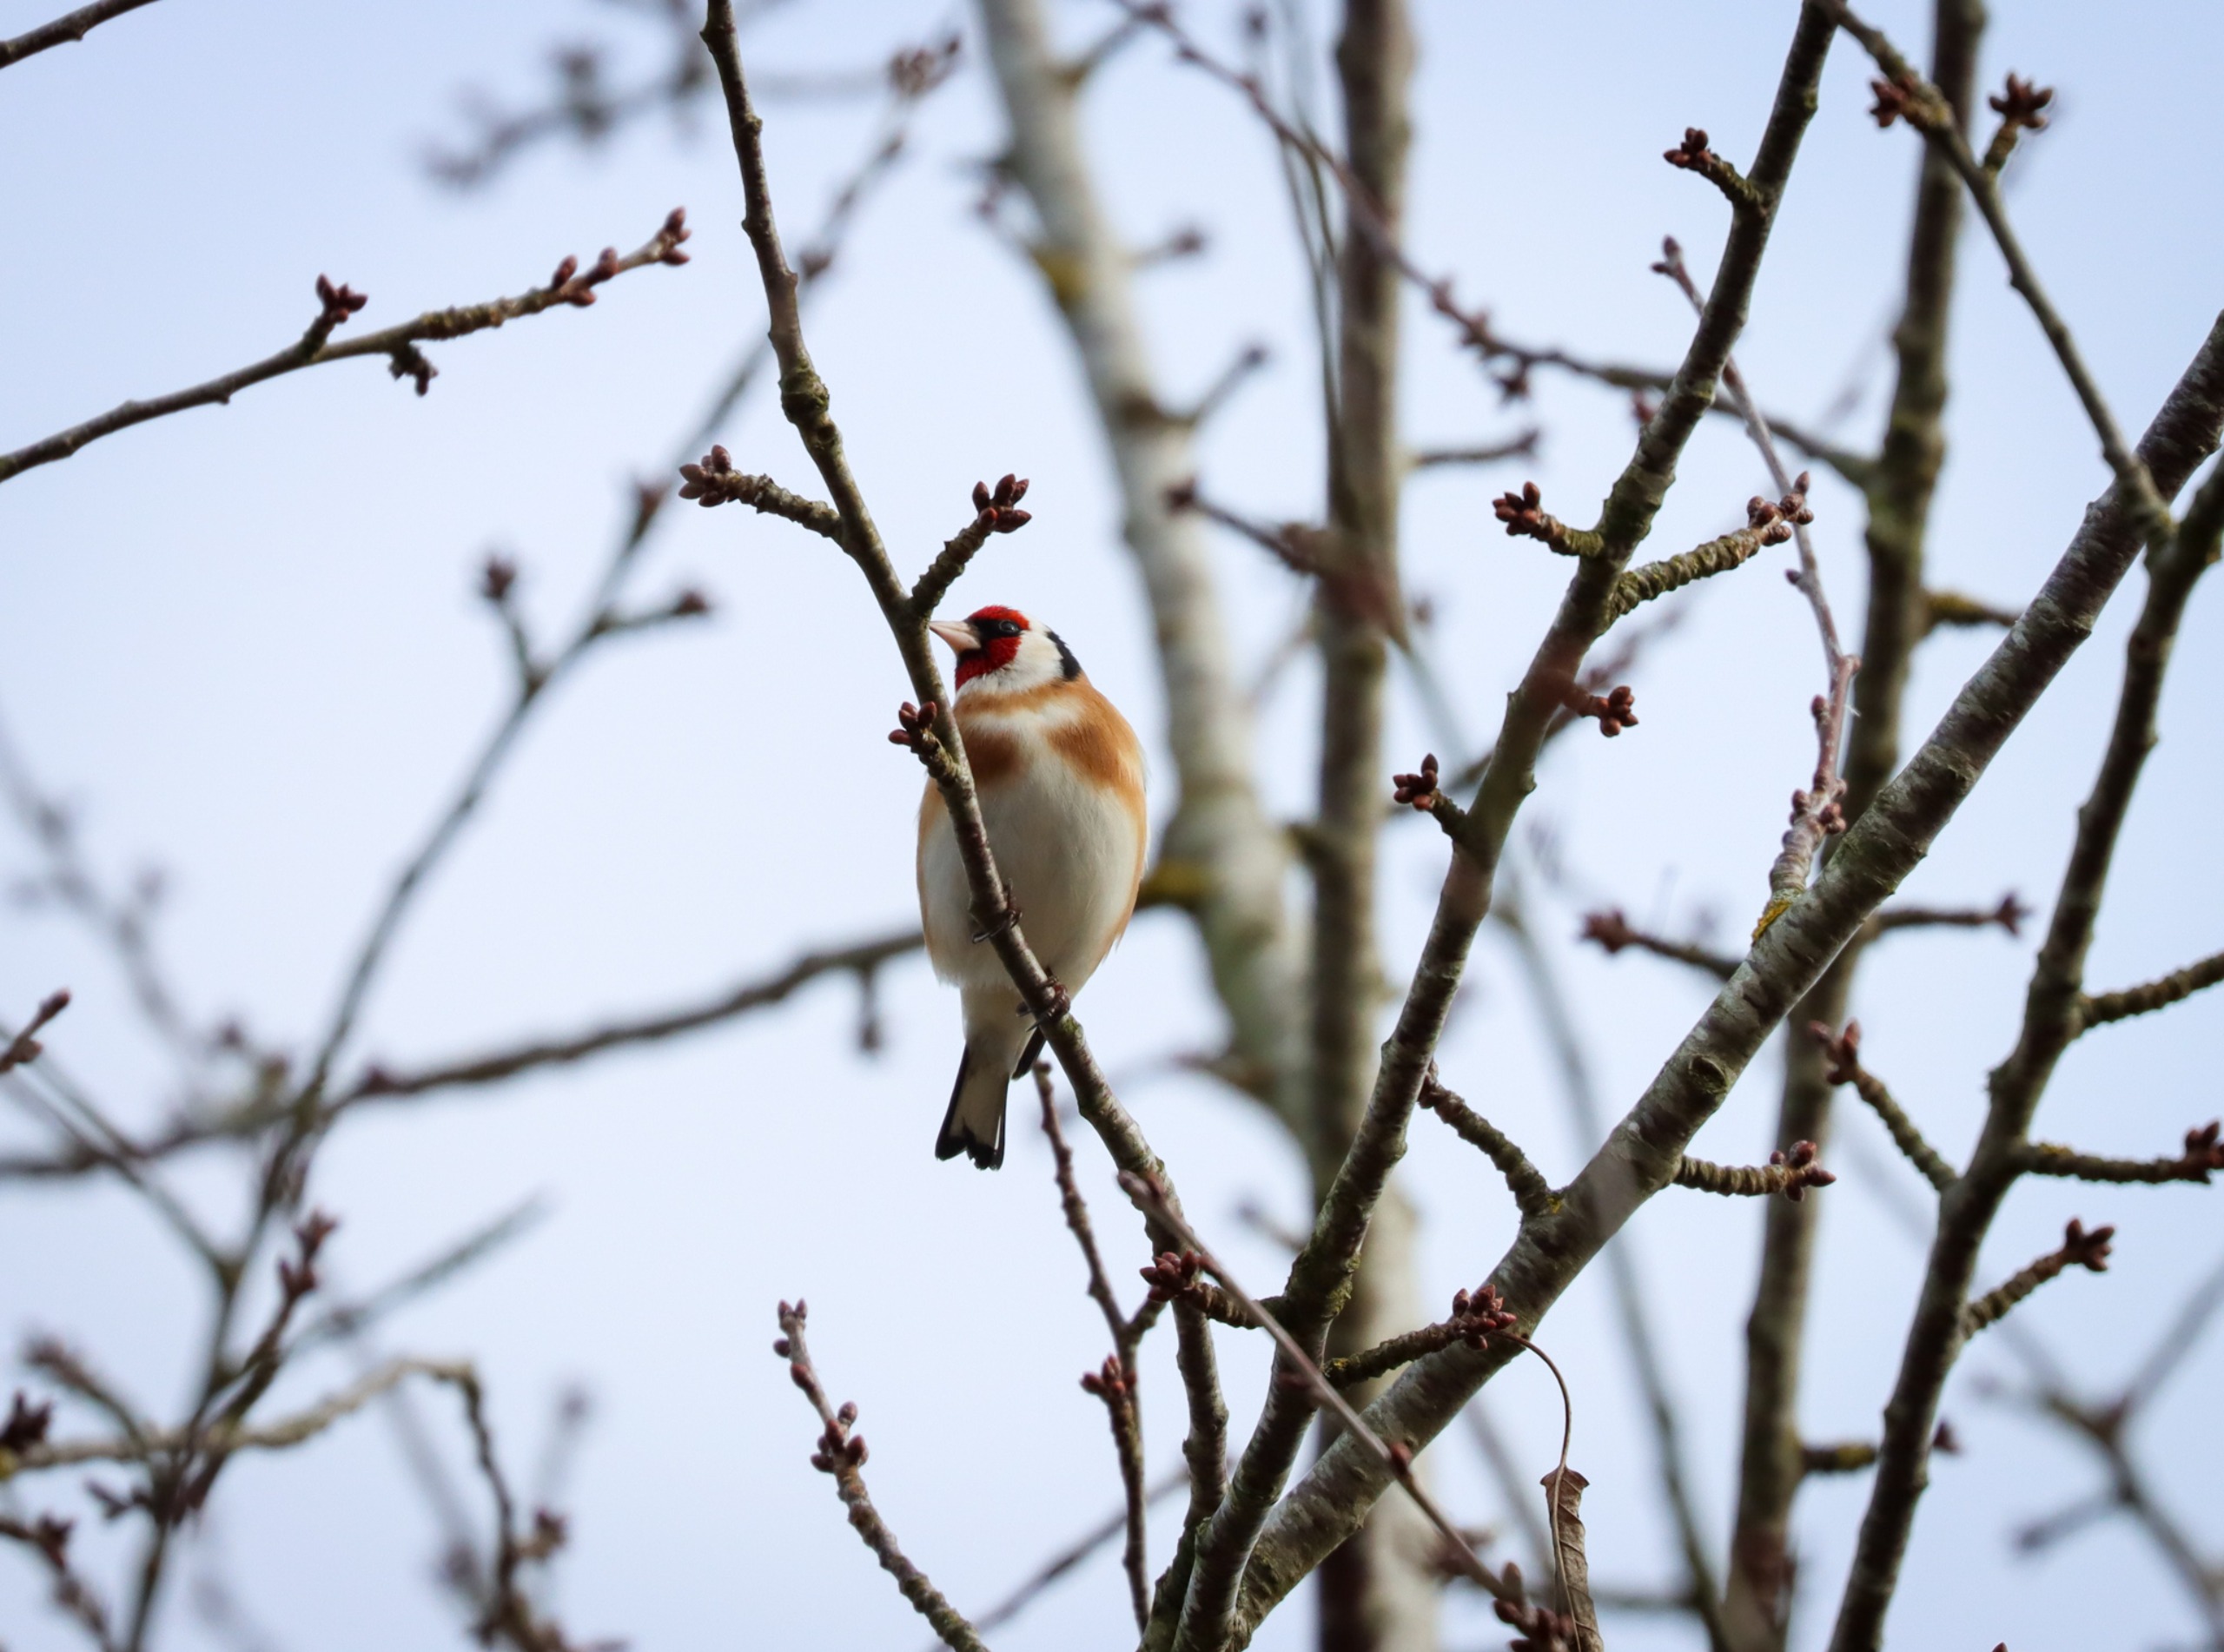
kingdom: Animalia
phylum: Chordata
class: Aves
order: Passeriformes
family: Fringillidae
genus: Carduelis
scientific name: Carduelis carduelis
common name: Stillits
